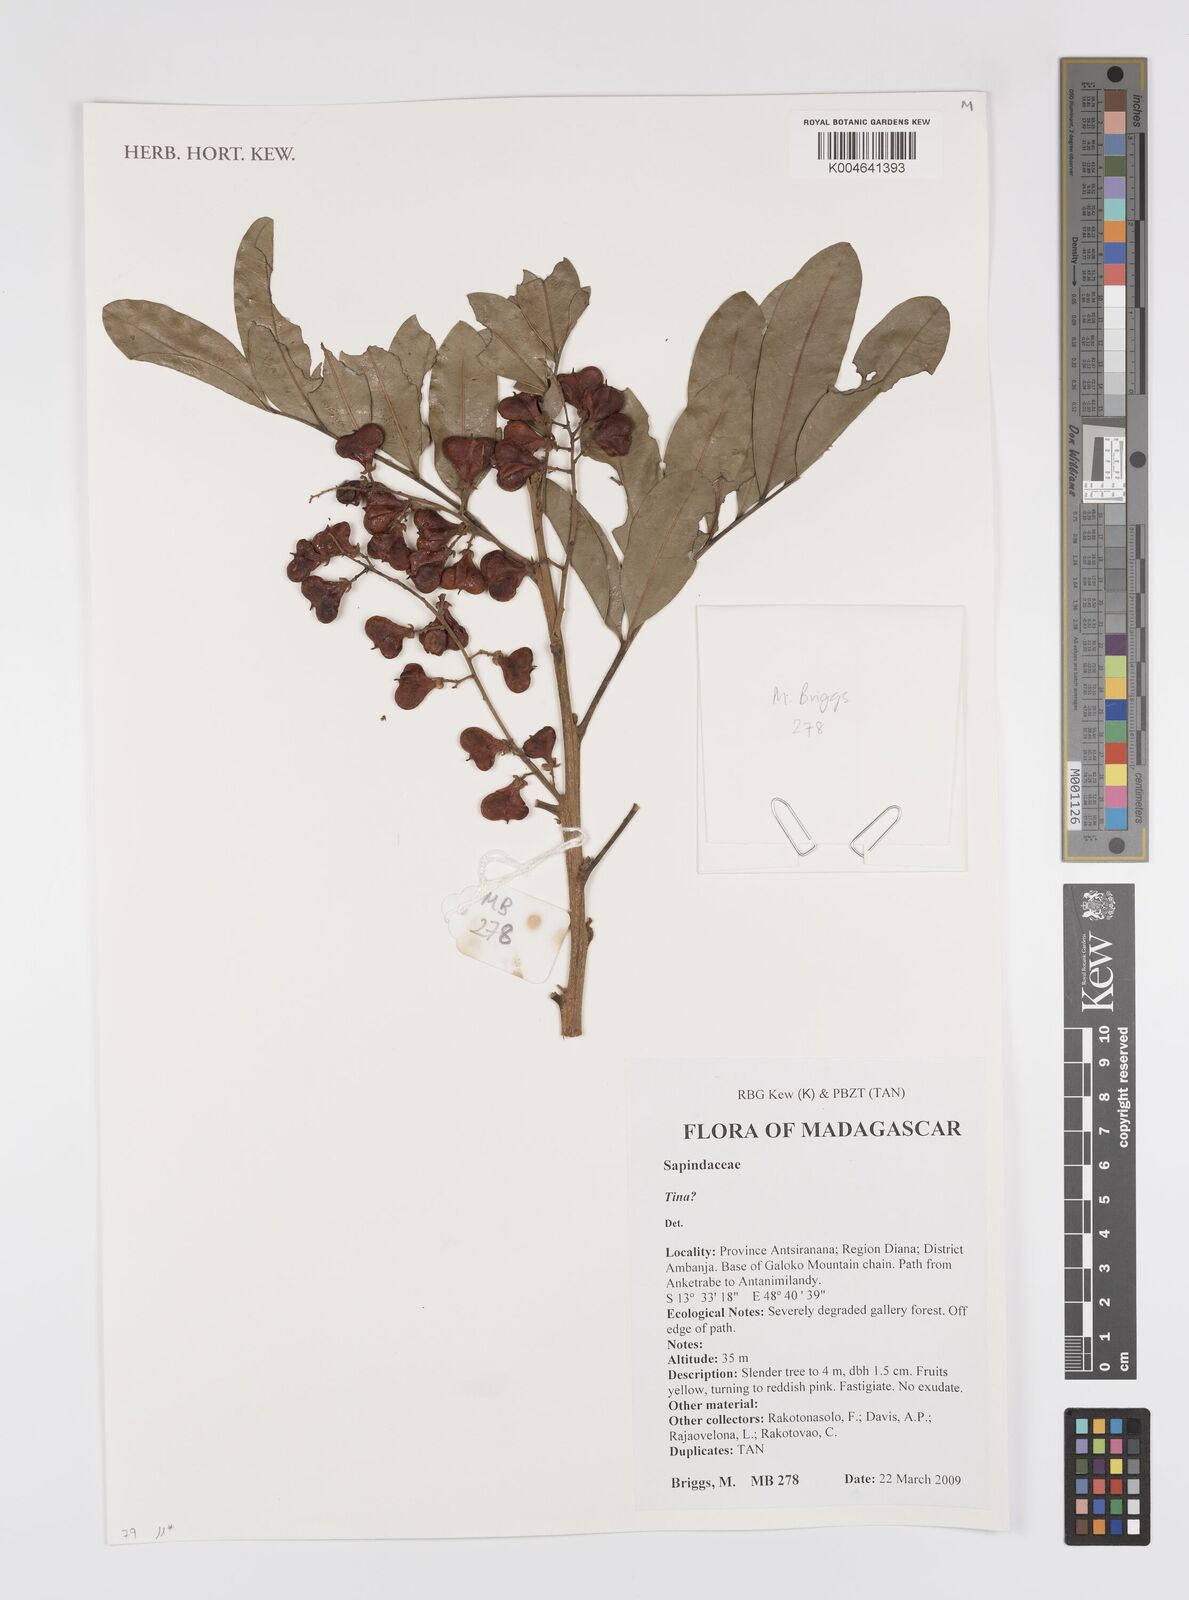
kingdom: Plantae
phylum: Tracheophyta
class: Magnoliopsida
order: Sapindales
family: Sapindaceae
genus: Tina
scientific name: Tina
